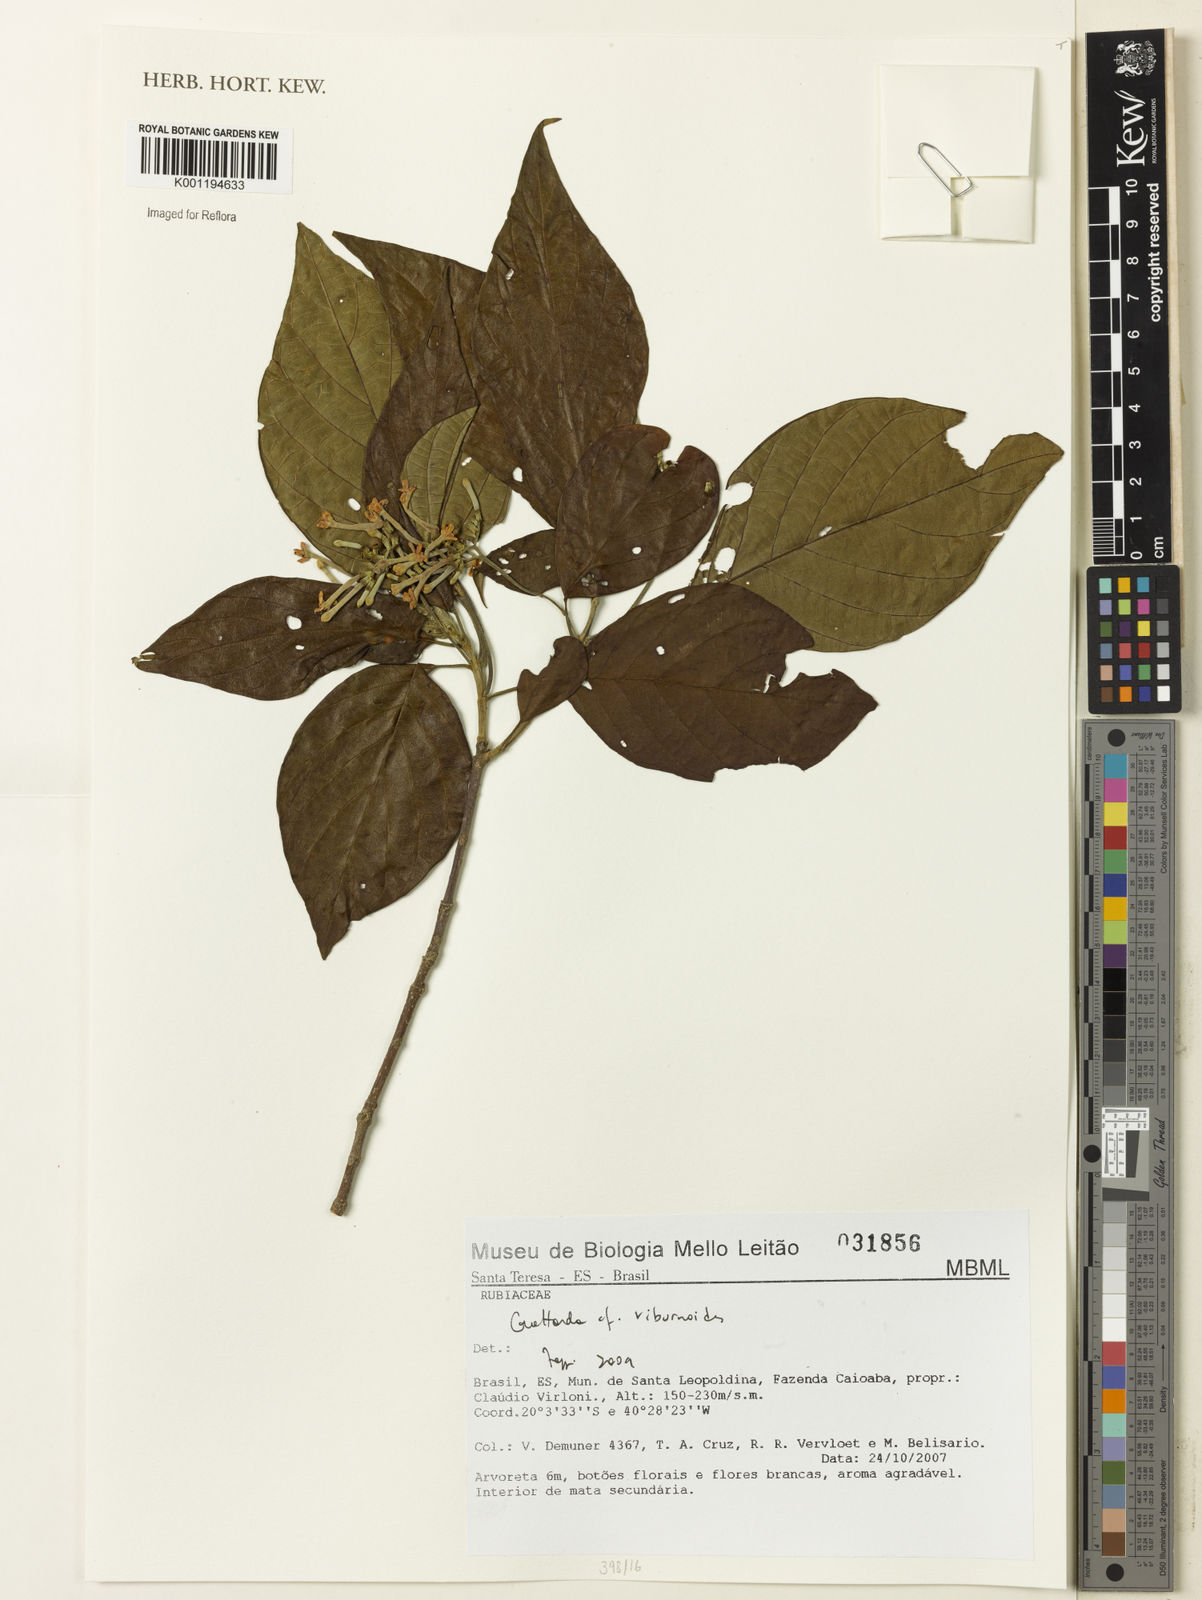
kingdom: Plantae
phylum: Tracheophyta
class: Magnoliopsida
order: Gentianales
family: Rubiaceae
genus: Guettarda
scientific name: Guettarda viburnoides
